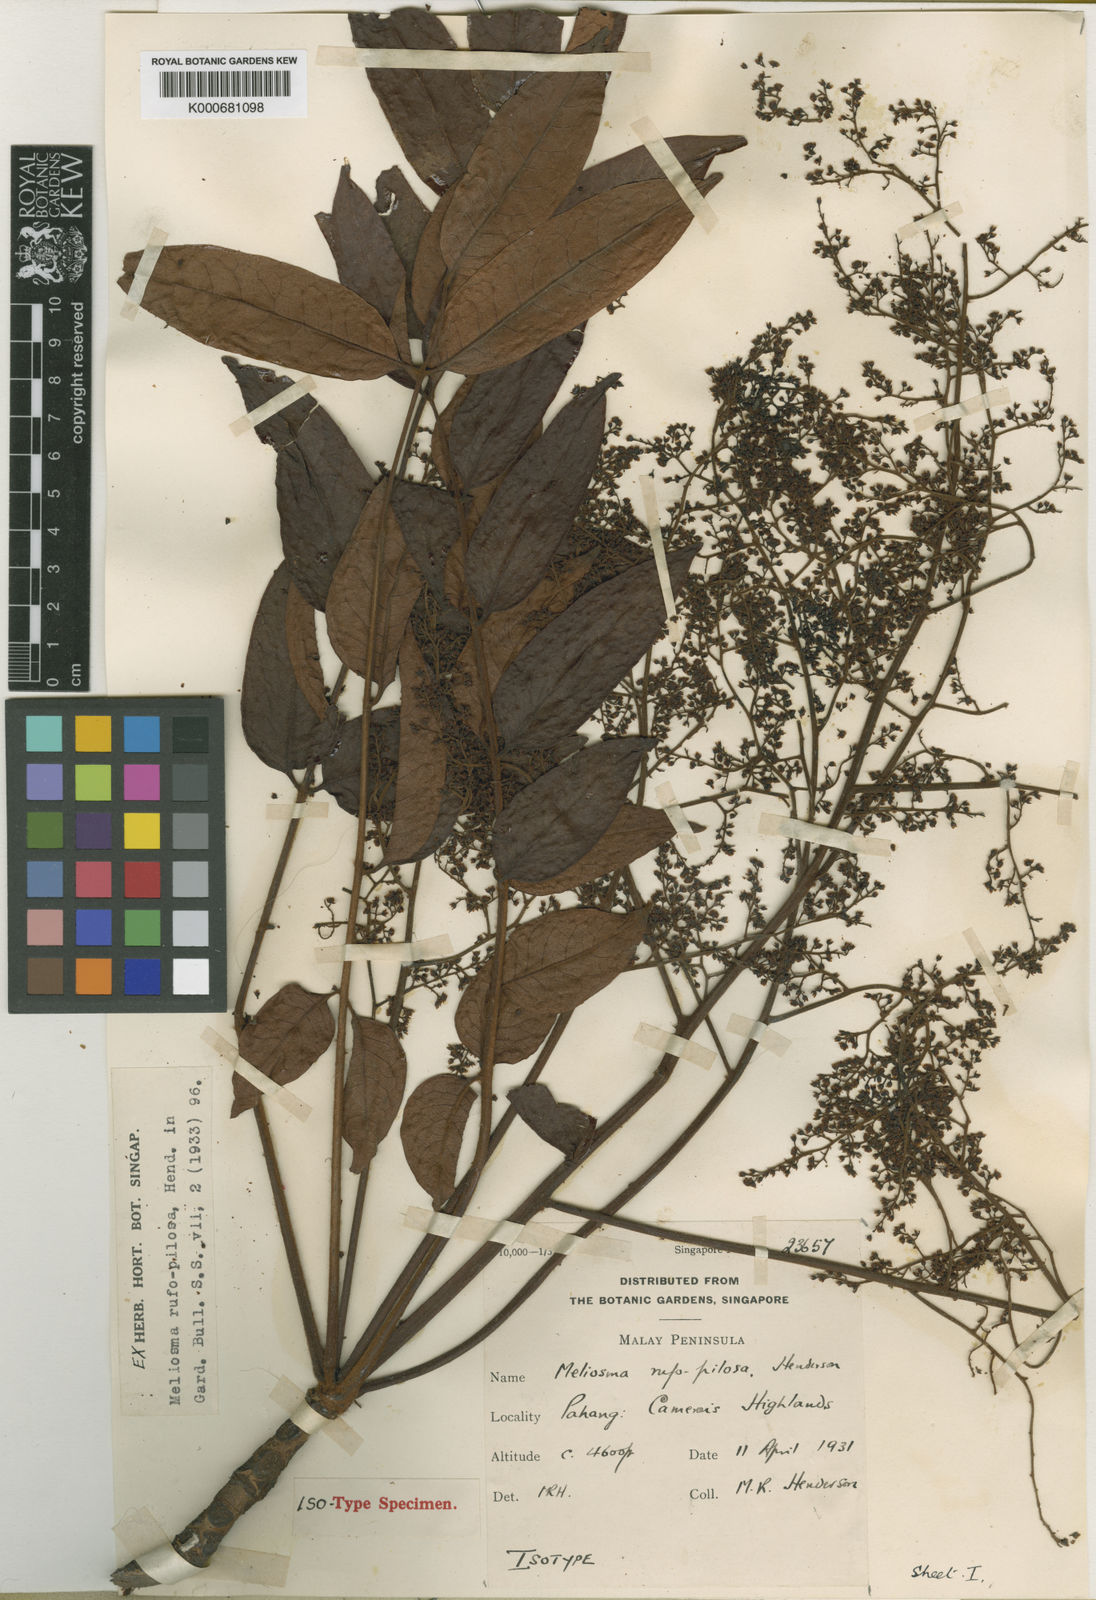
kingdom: Plantae
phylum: Tracheophyta
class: Magnoliopsida
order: Proteales
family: Sabiaceae
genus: Meliosma
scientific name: Meliosma rufopilosa
